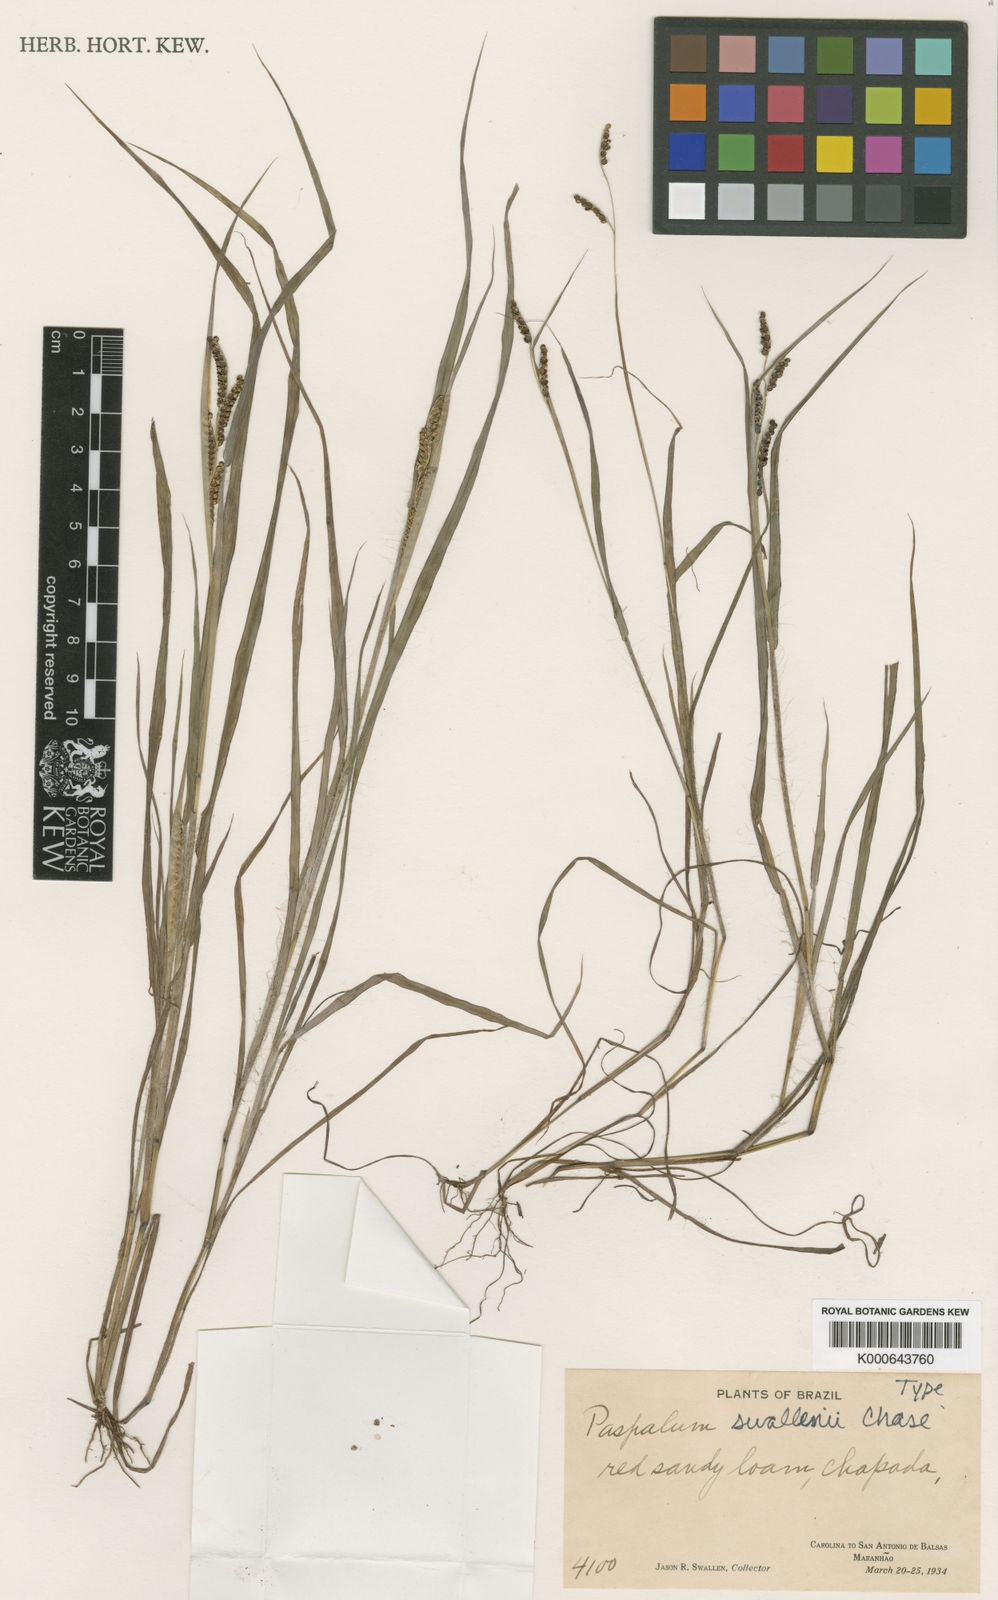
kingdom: Plantae
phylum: Tracheophyta
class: Liliopsida
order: Poales
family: Poaceae
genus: Paspalum
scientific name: Paspalum expansum
